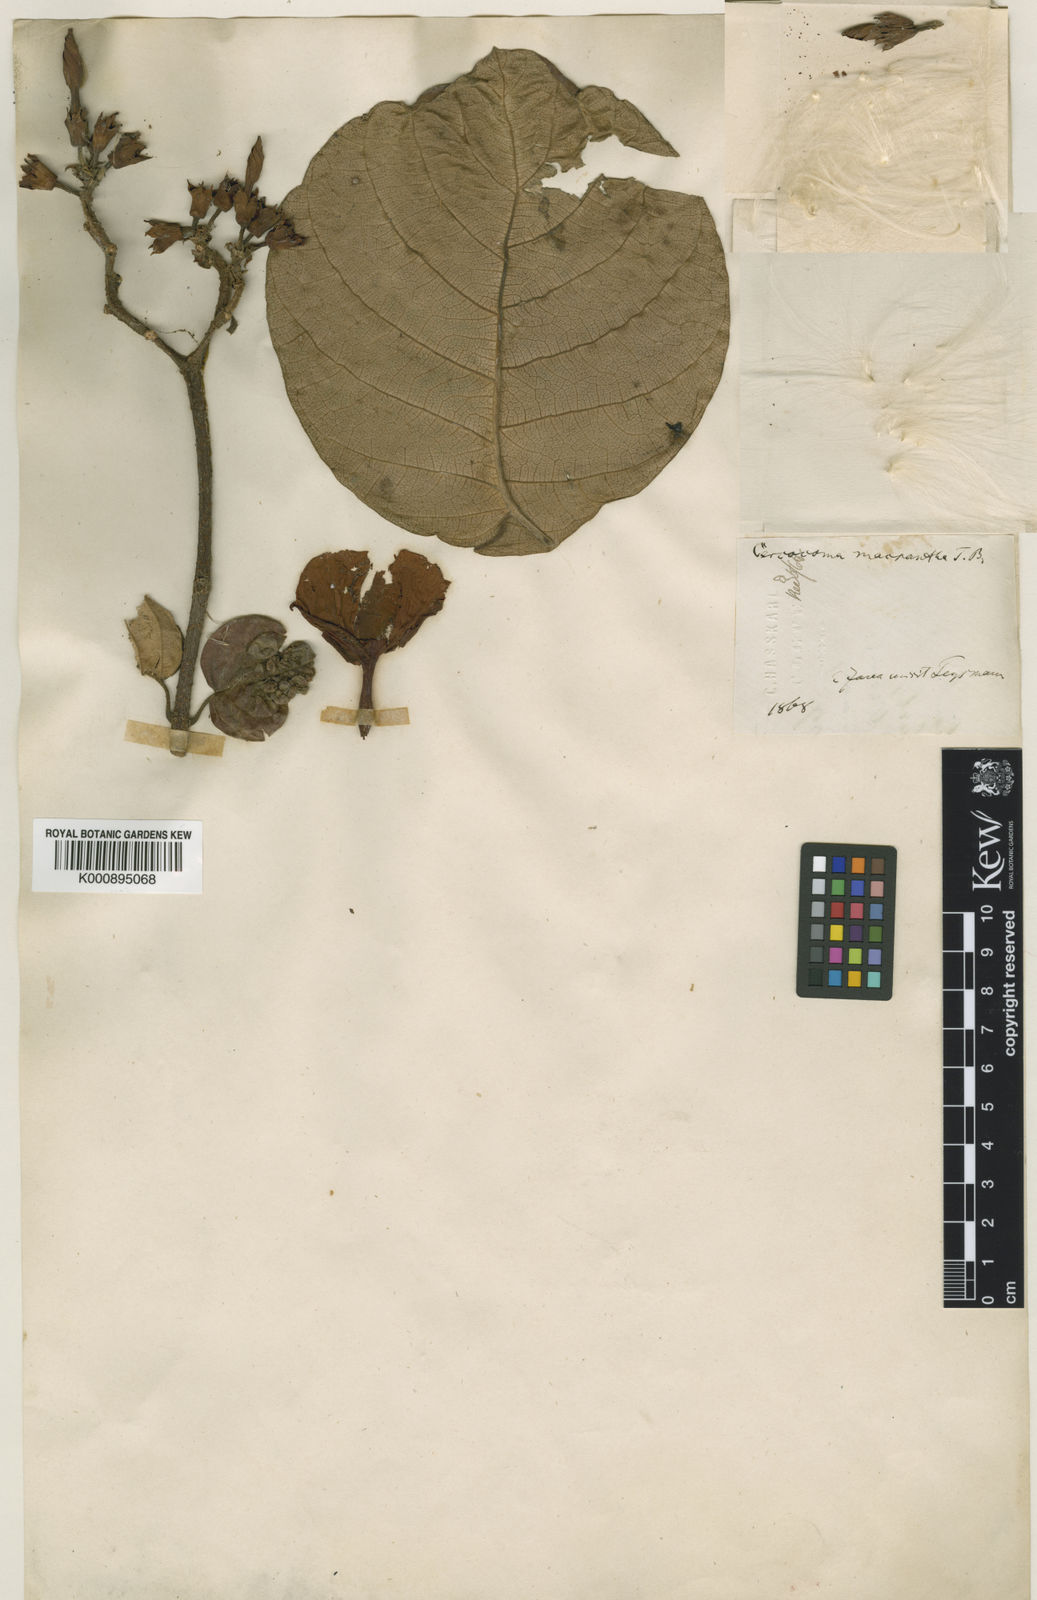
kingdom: Plantae
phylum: Tracheophyta
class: Magnoliopsida
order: Gentianales
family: Apocynaceae
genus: Chonemorpha
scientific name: Chonemorpha fragrans
